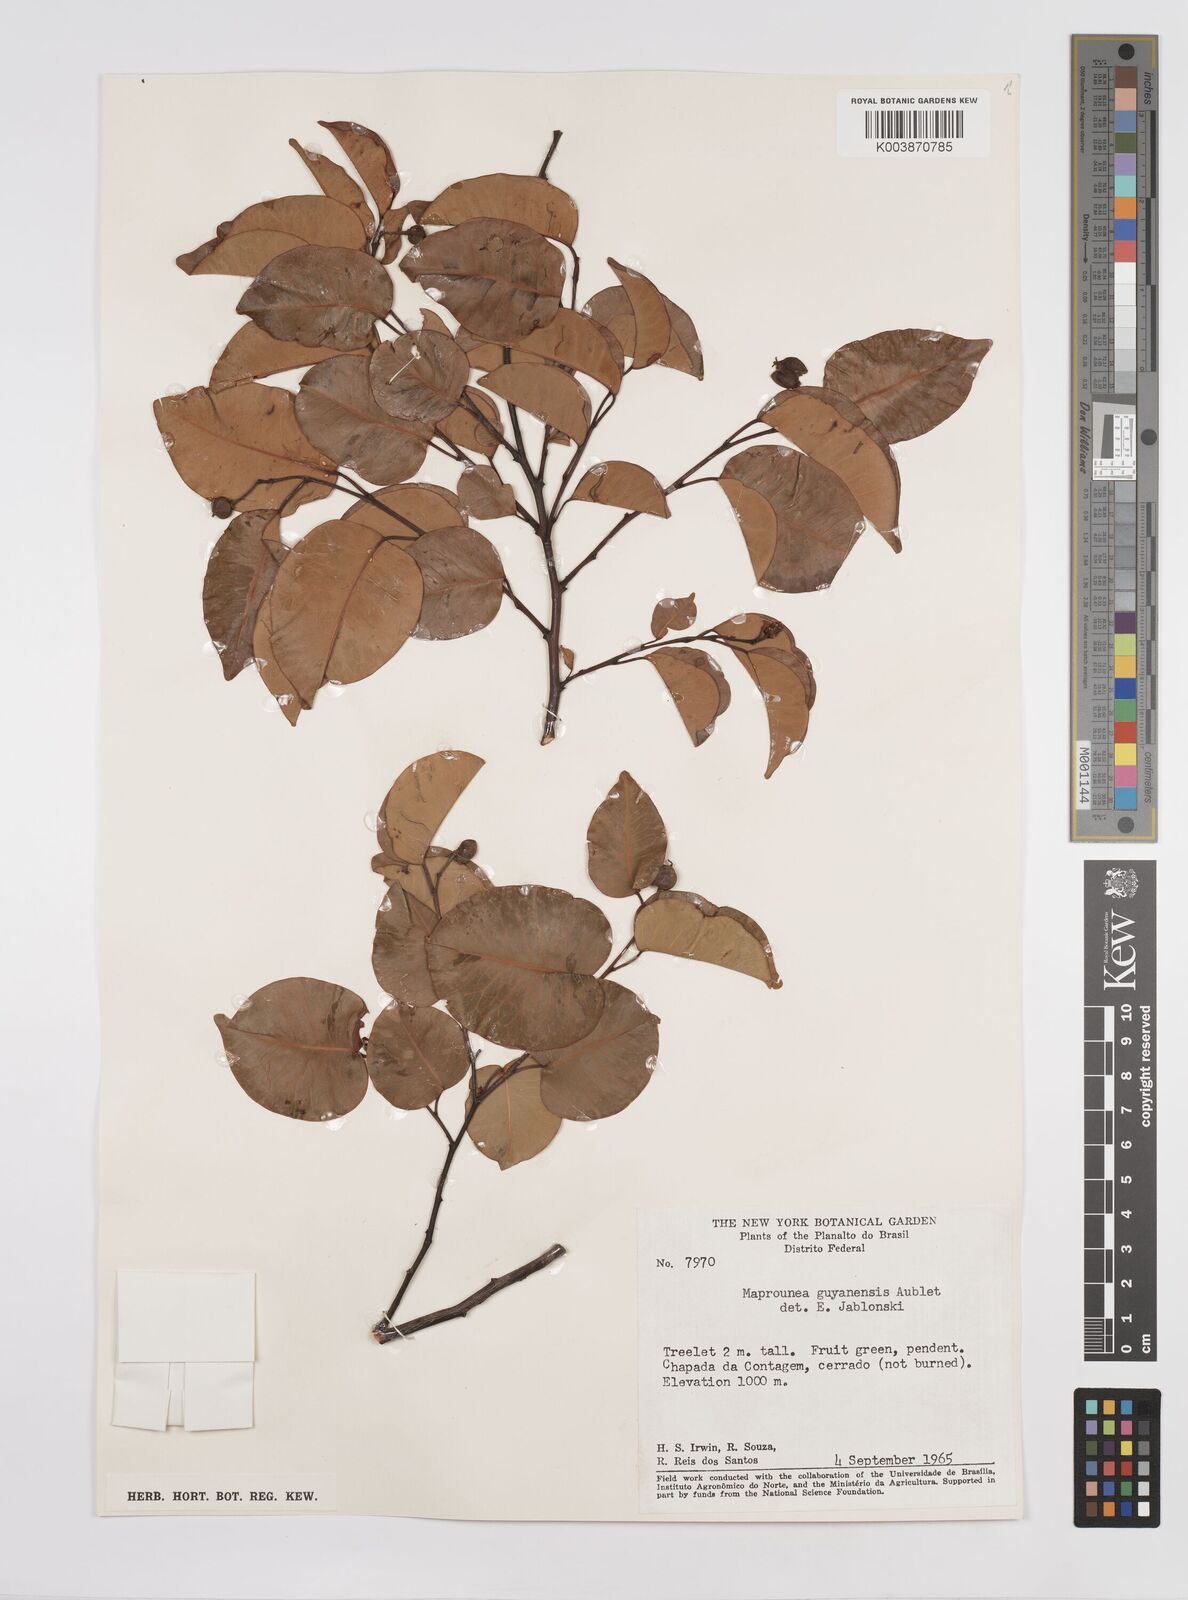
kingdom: Plantae
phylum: Tracheophyta
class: Magnoliopsida
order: Malpighiales
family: Euphorbiaceae
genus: Maprounea
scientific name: Maprounea guianensis
